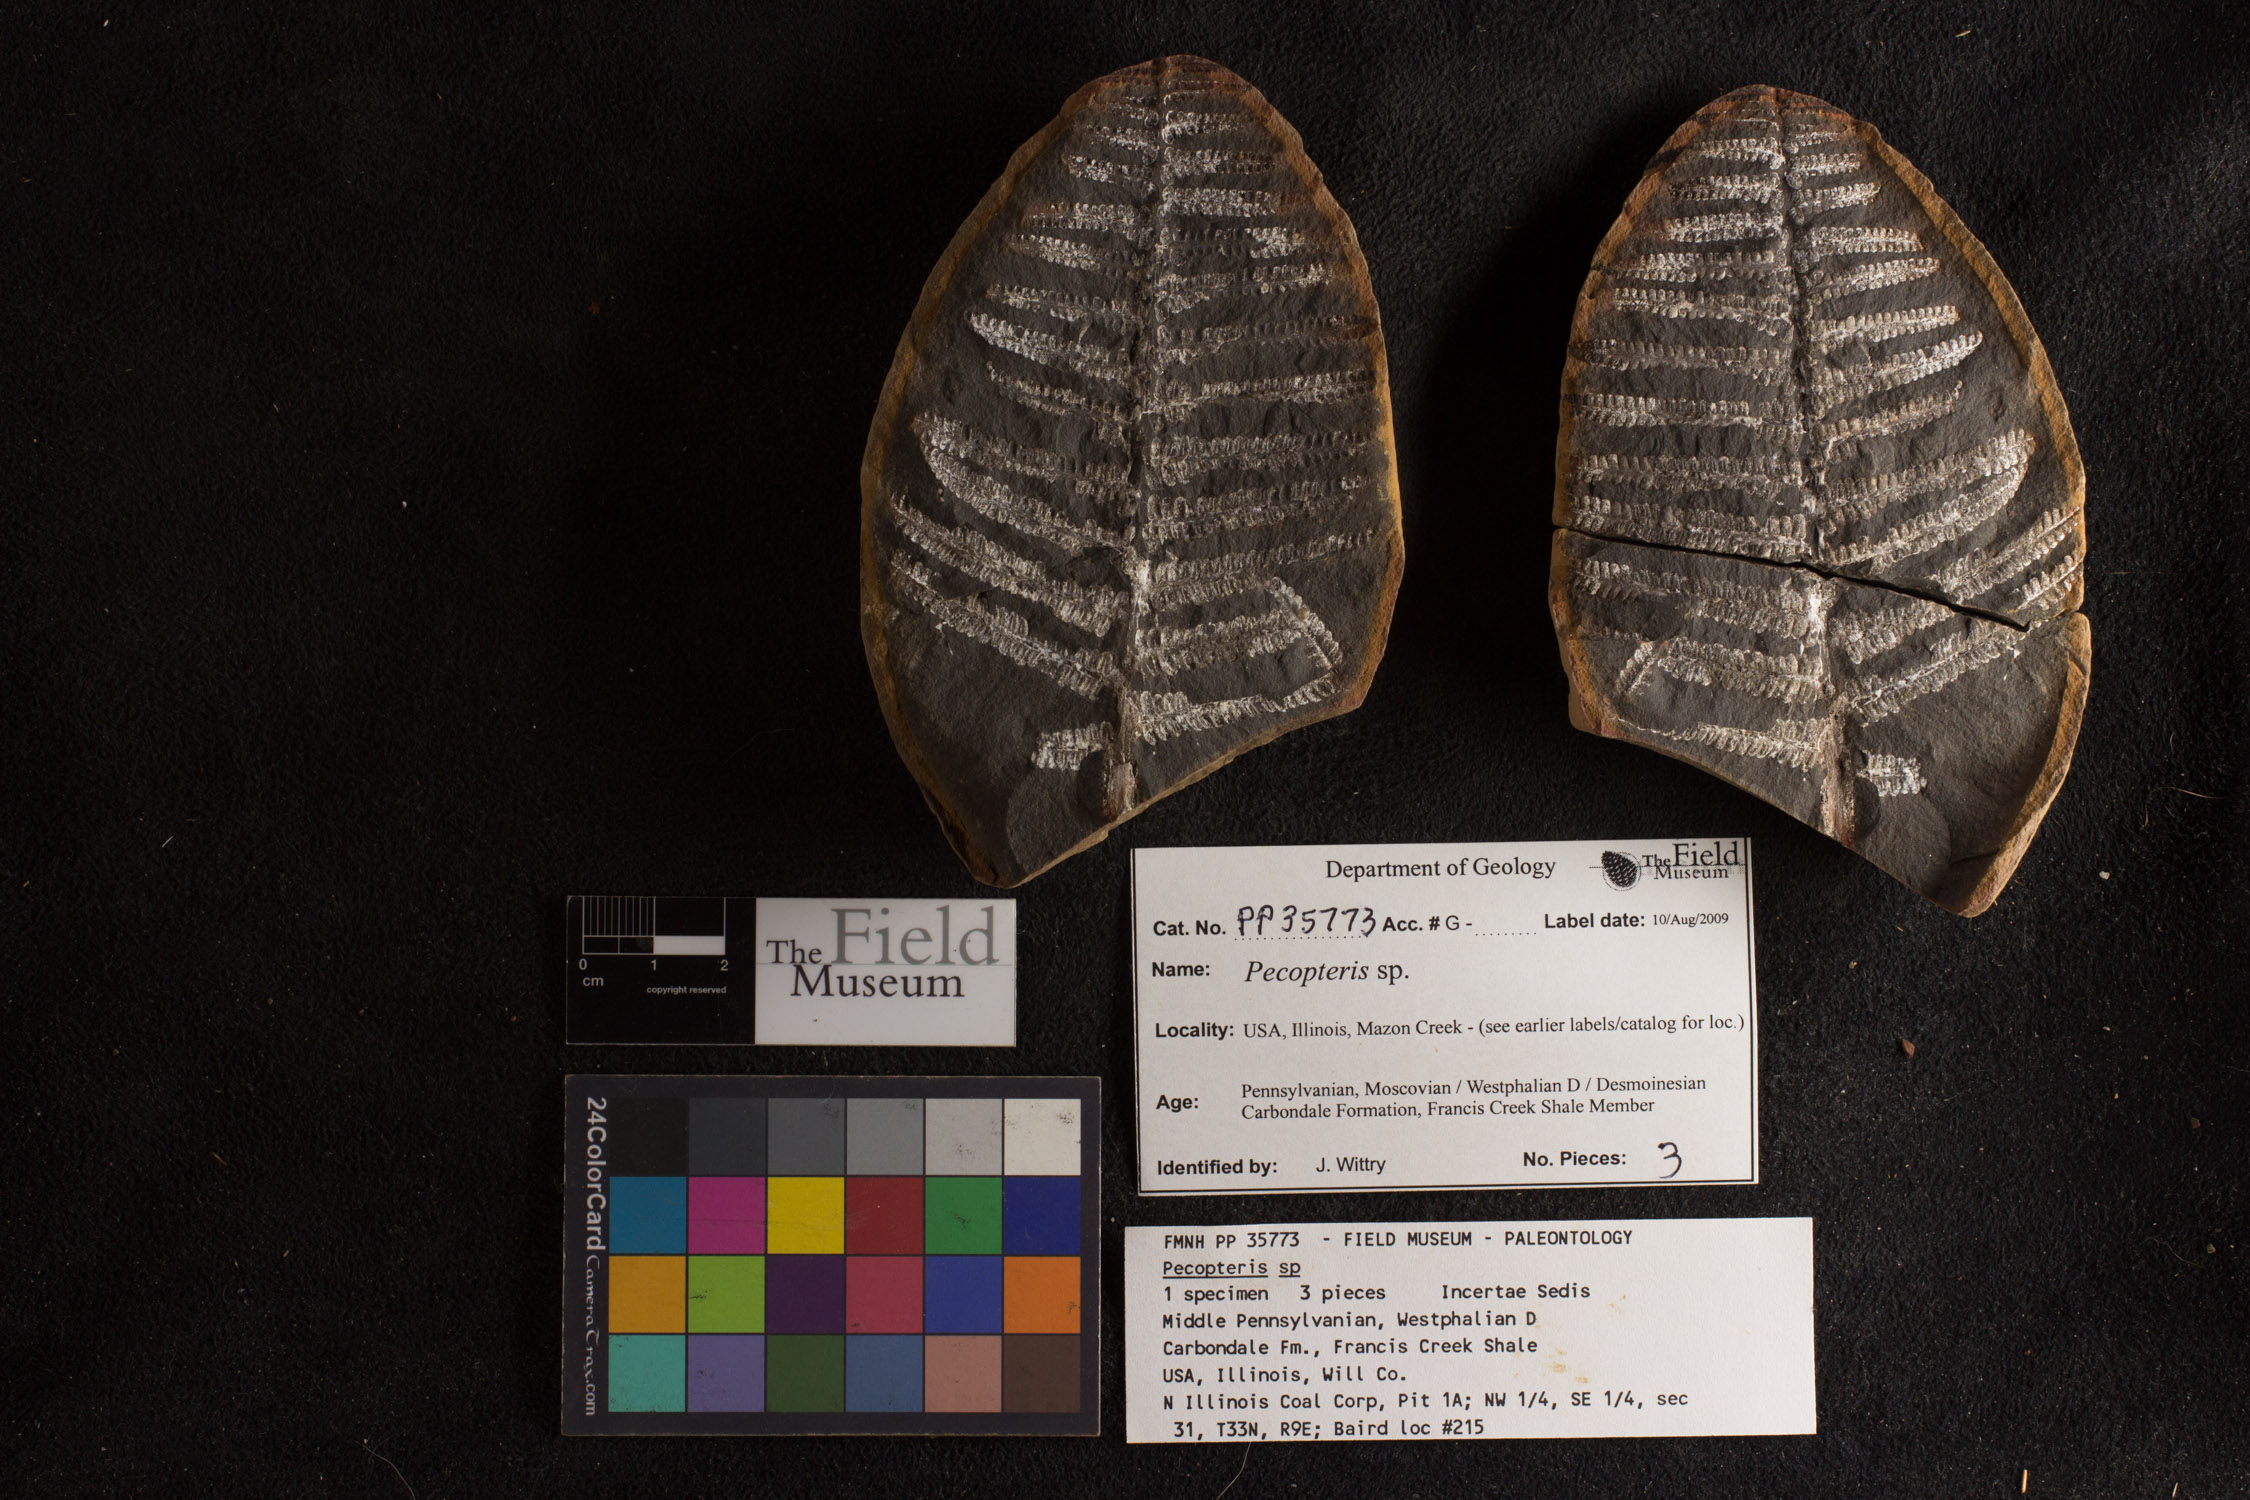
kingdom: Plantae
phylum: Tracheophyta
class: Polypodiopsida
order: Marattiales
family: Asterothecaceae
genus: Pecopteris
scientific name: Pecopteris
